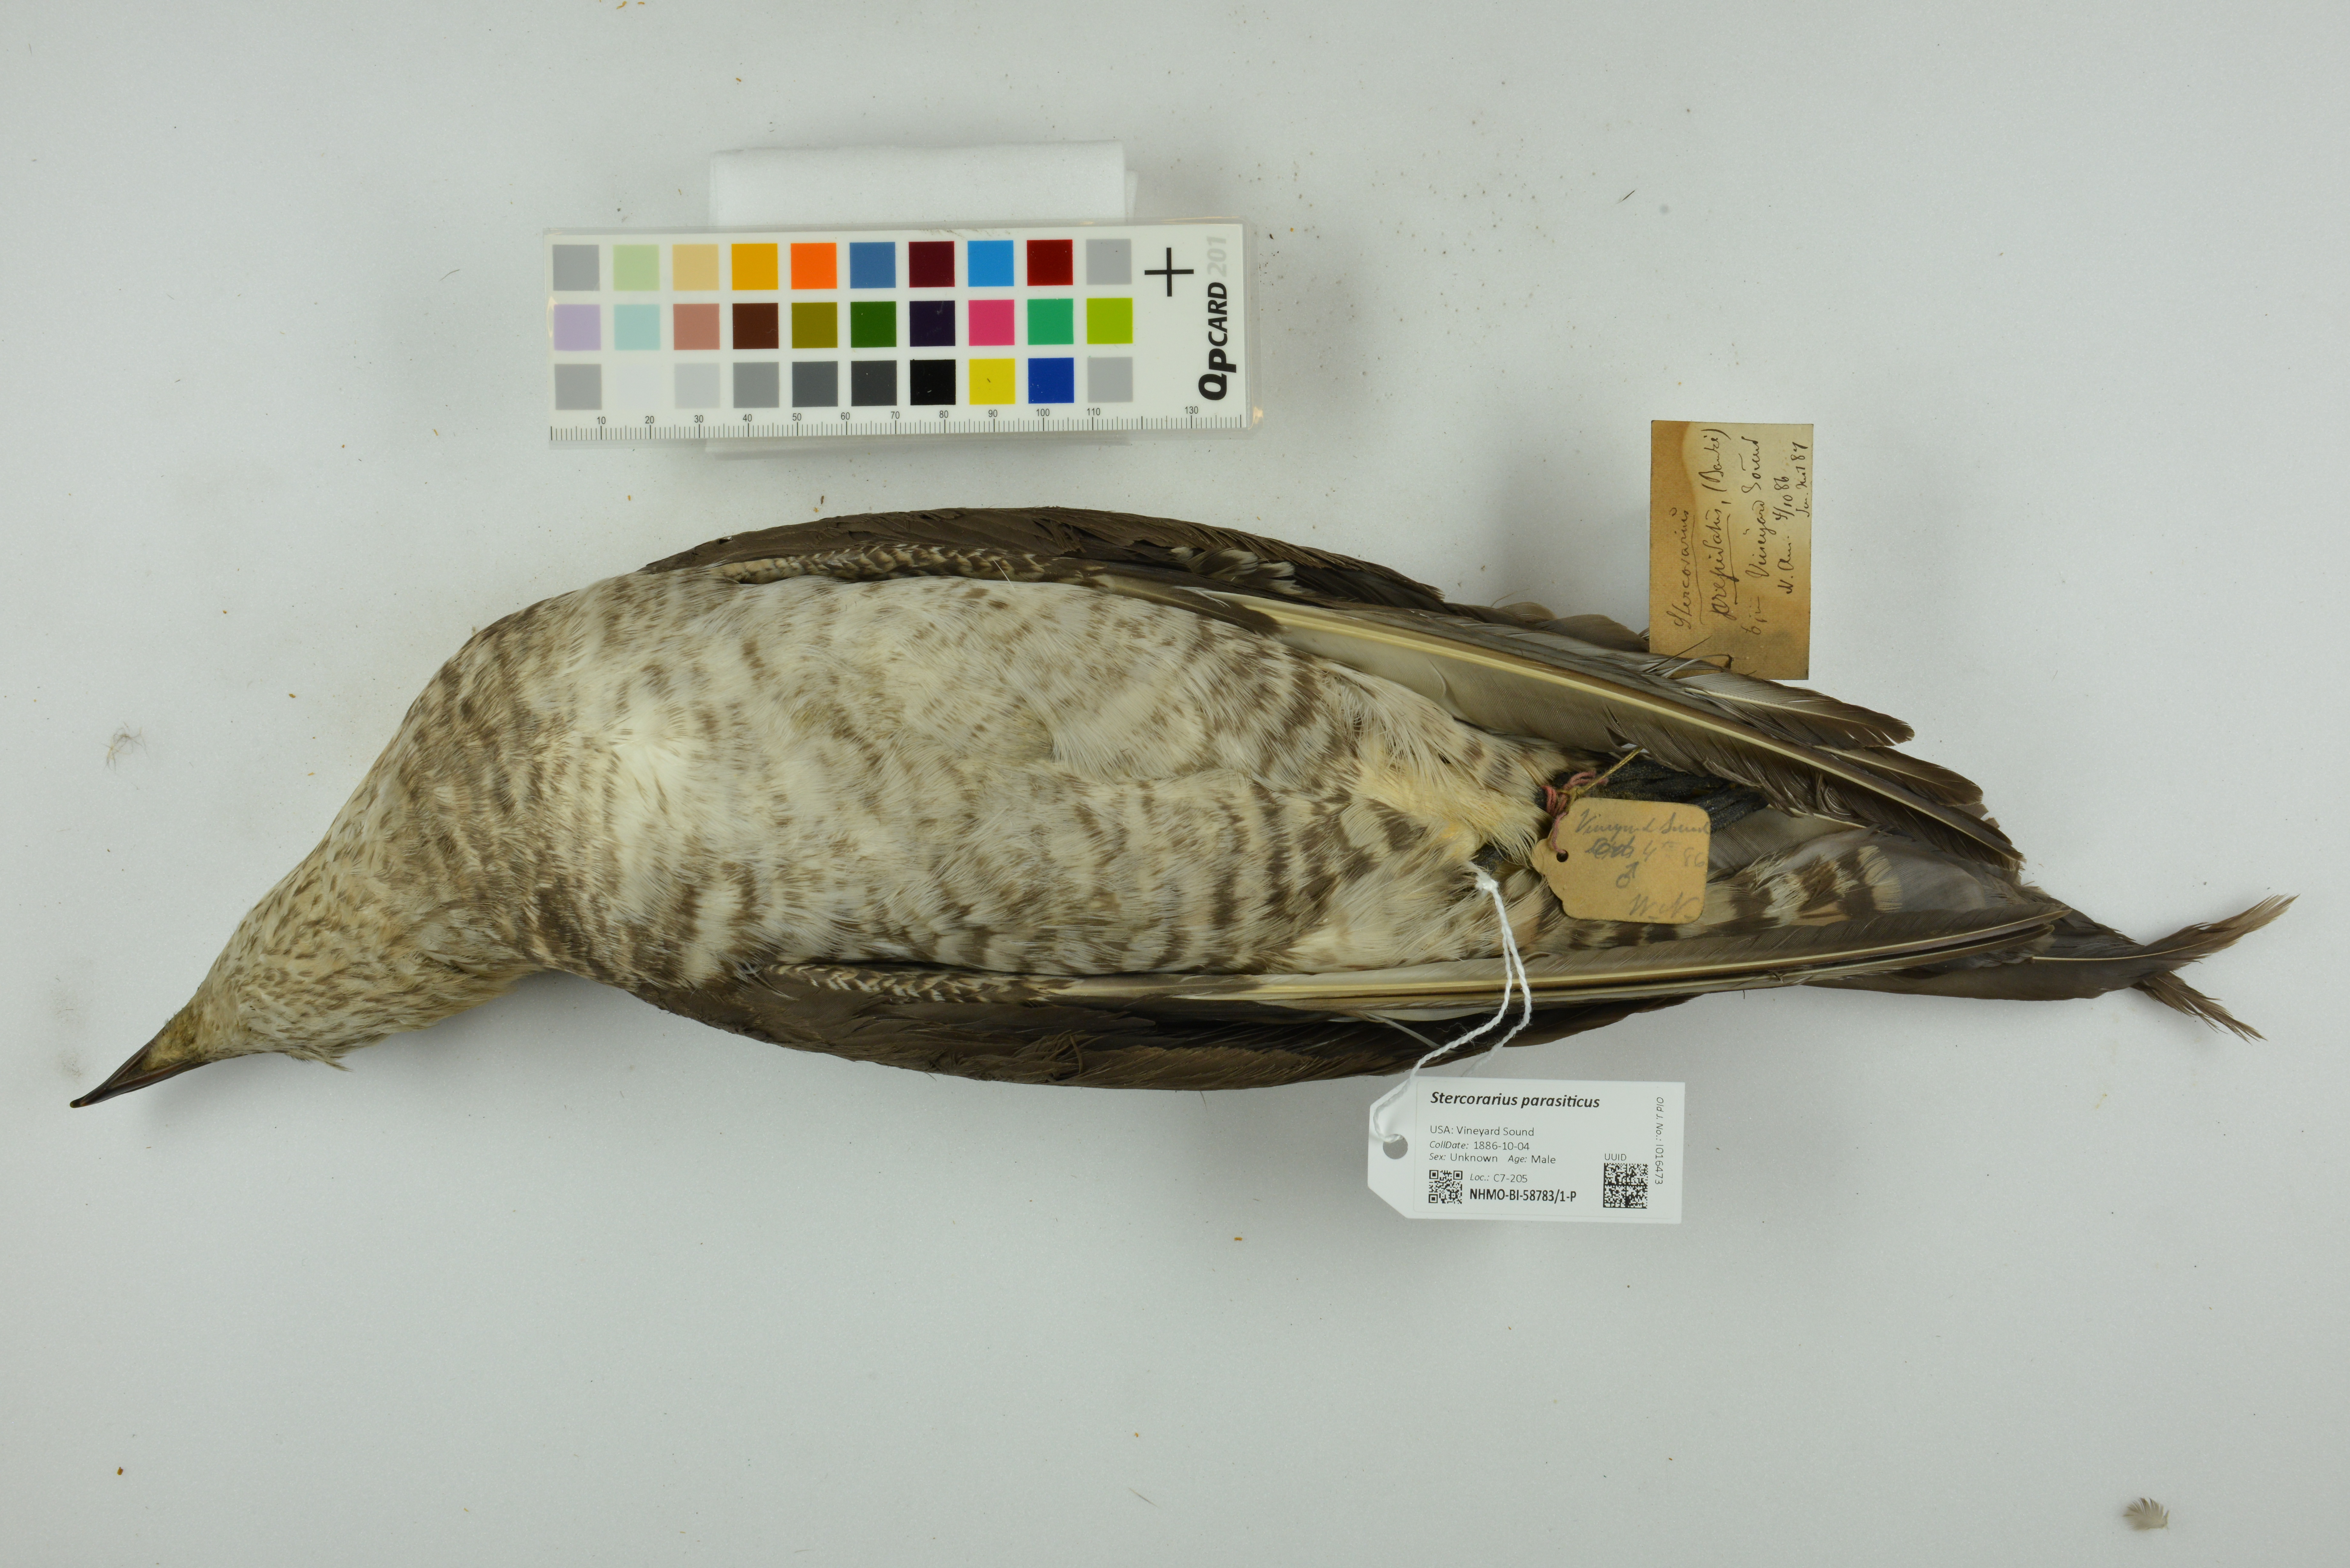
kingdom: Animalia
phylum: Chordata
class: Aves
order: Charadriiformes
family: Stercorariidae
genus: Stercorarius
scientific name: Stercorarius parasiticus
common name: Parasitic jaeger
